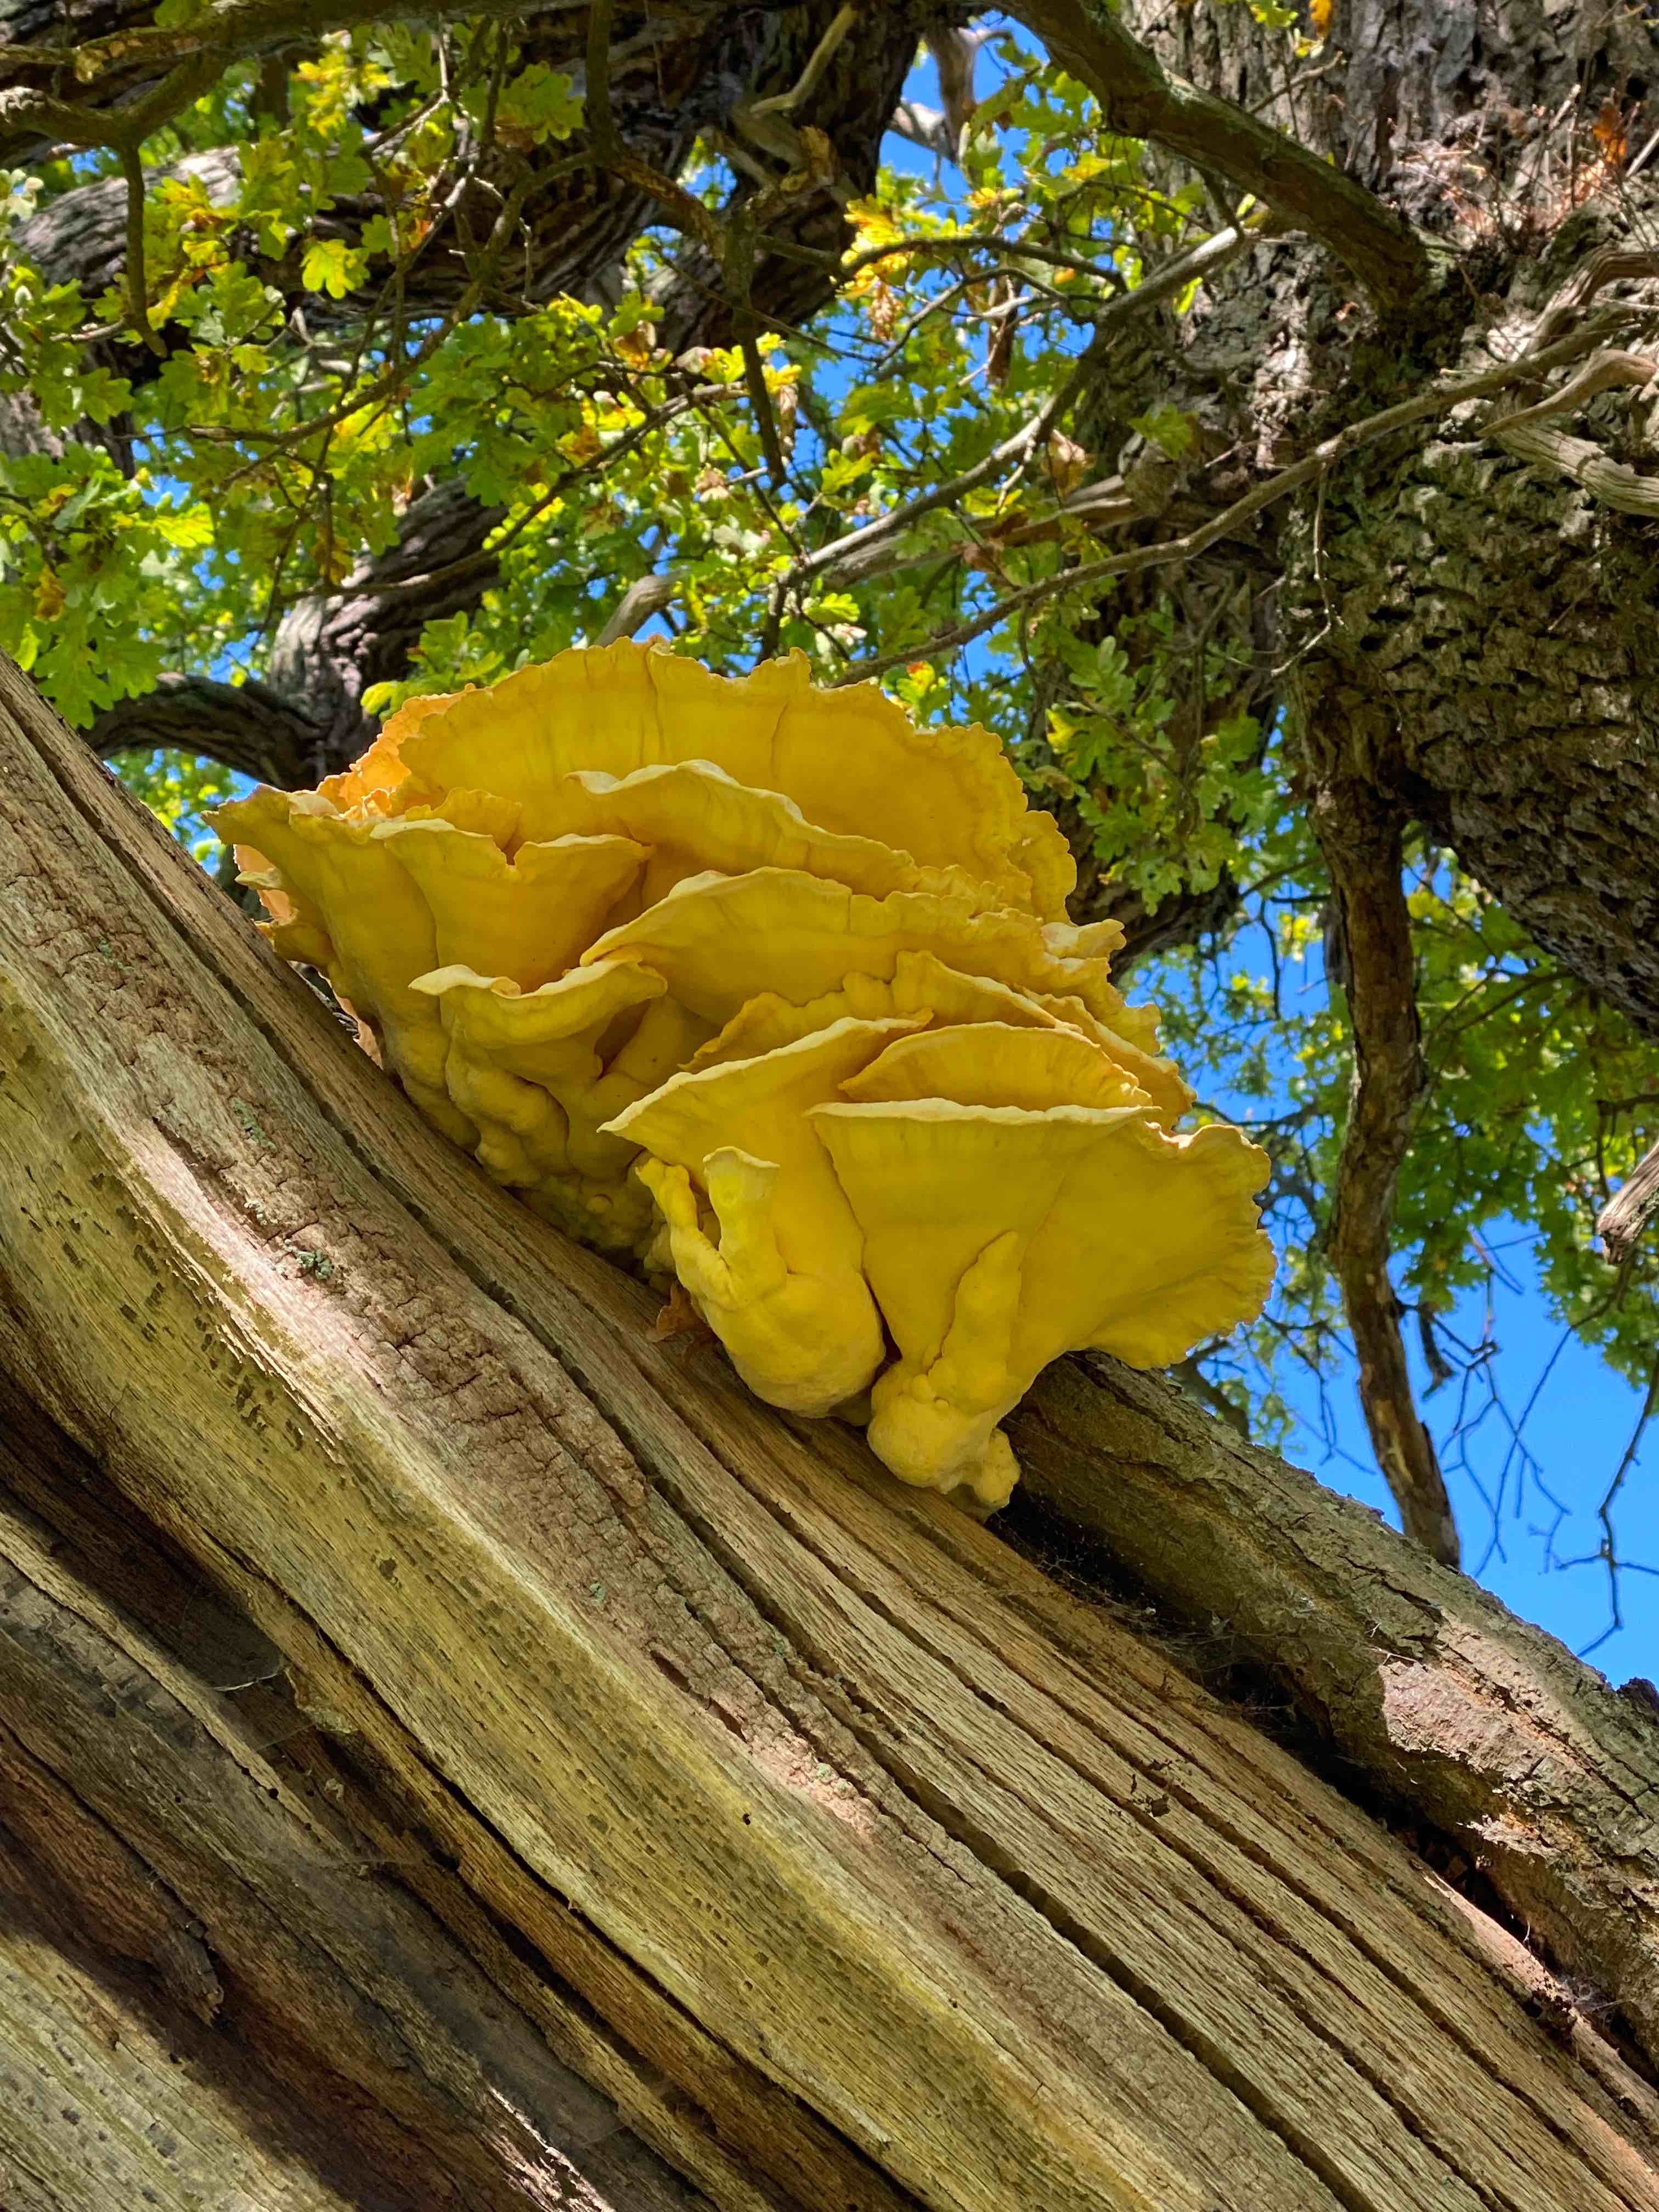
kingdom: Fungi
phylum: Basidiomycota
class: Agaricomycetes
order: Polyporales
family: Laetiporaceae
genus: Laetiporus
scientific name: Laetiporus sulphureus
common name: svovlporesvamp
